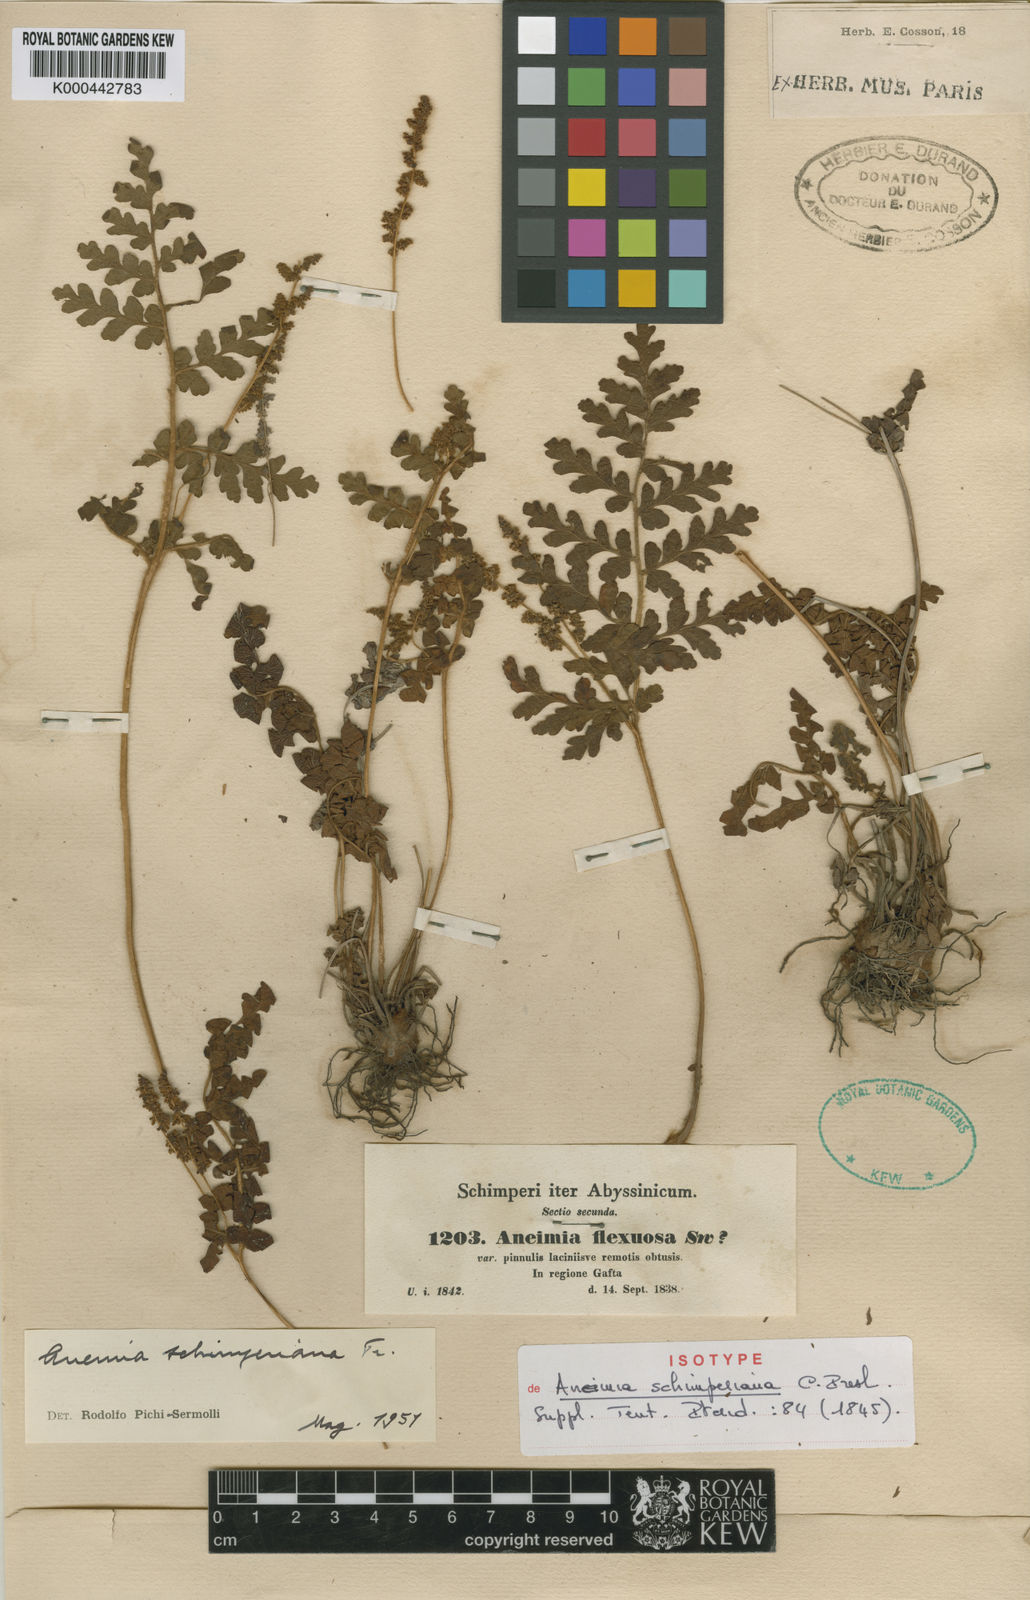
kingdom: Plantae
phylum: Tracheophyta
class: Polypodiopsida
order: Schizaeales
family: Anemiaceae
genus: Anemia
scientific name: Anemia schimperiana
